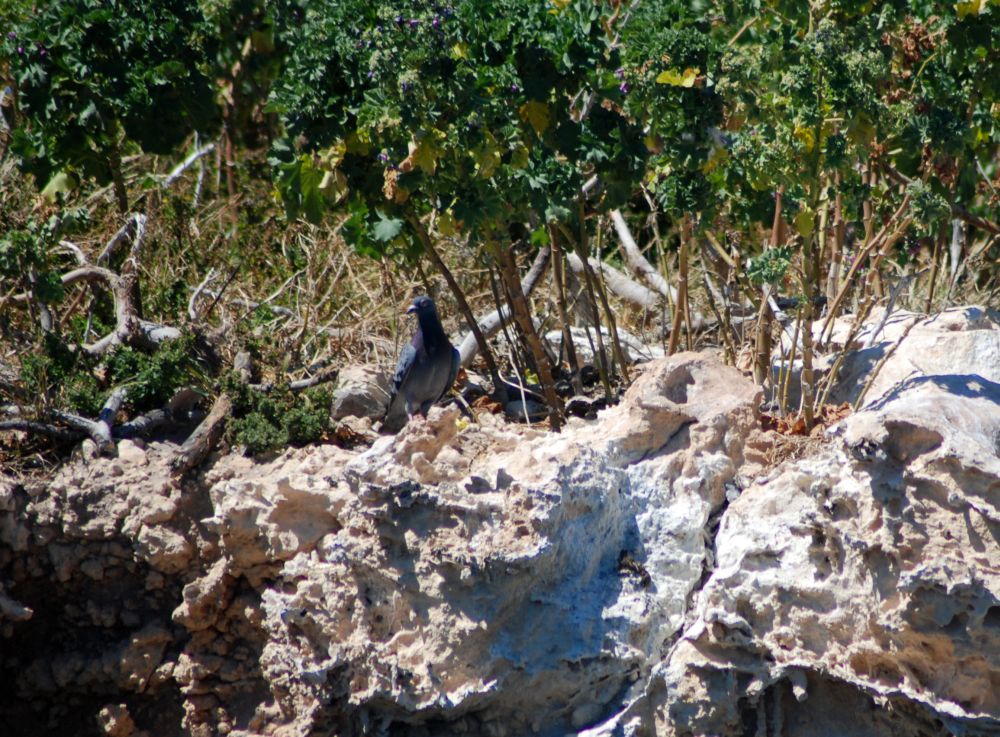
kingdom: Animalia
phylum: Chordata
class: Aves
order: Columbiformes
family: Columbidae
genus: Columba
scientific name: Columba livia
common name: Rock pigeon
